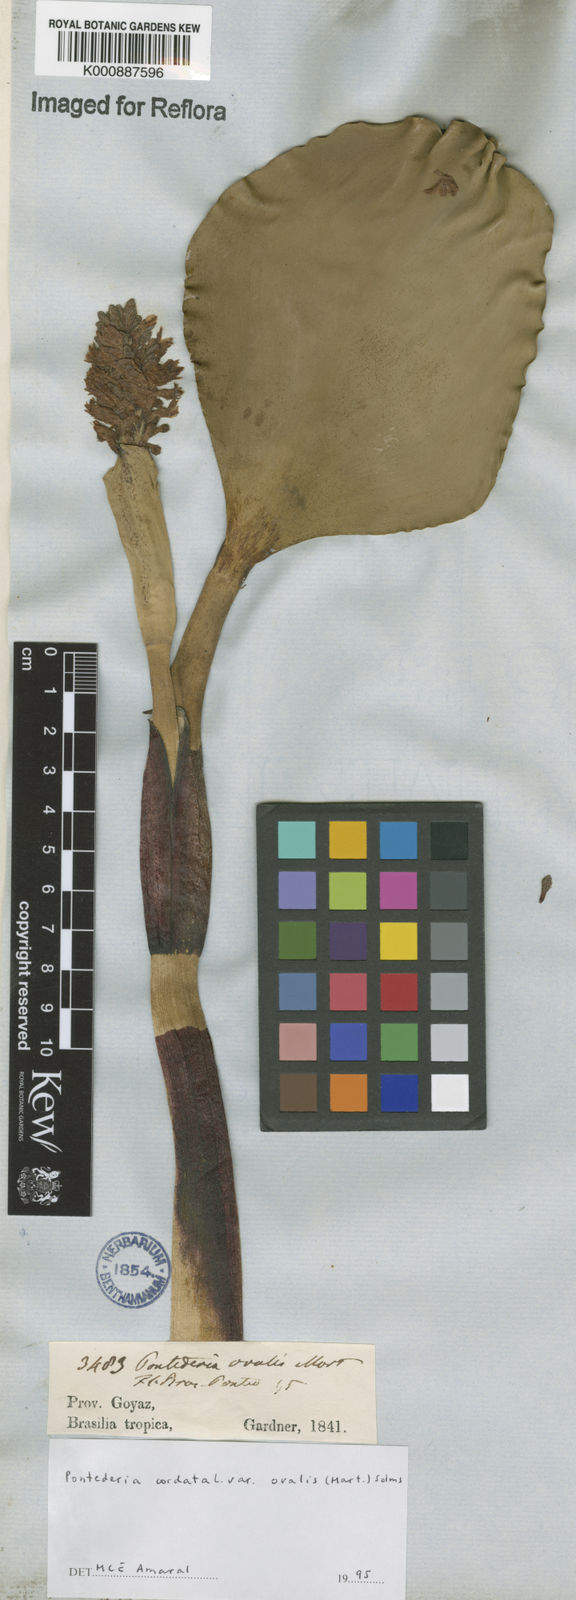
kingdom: Plantae
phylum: Tracheophyta
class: Liliopsida
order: Commelinales
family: Pontederiaceae
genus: Pontederia
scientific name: Pontederia cordata
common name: Pickerelweed
